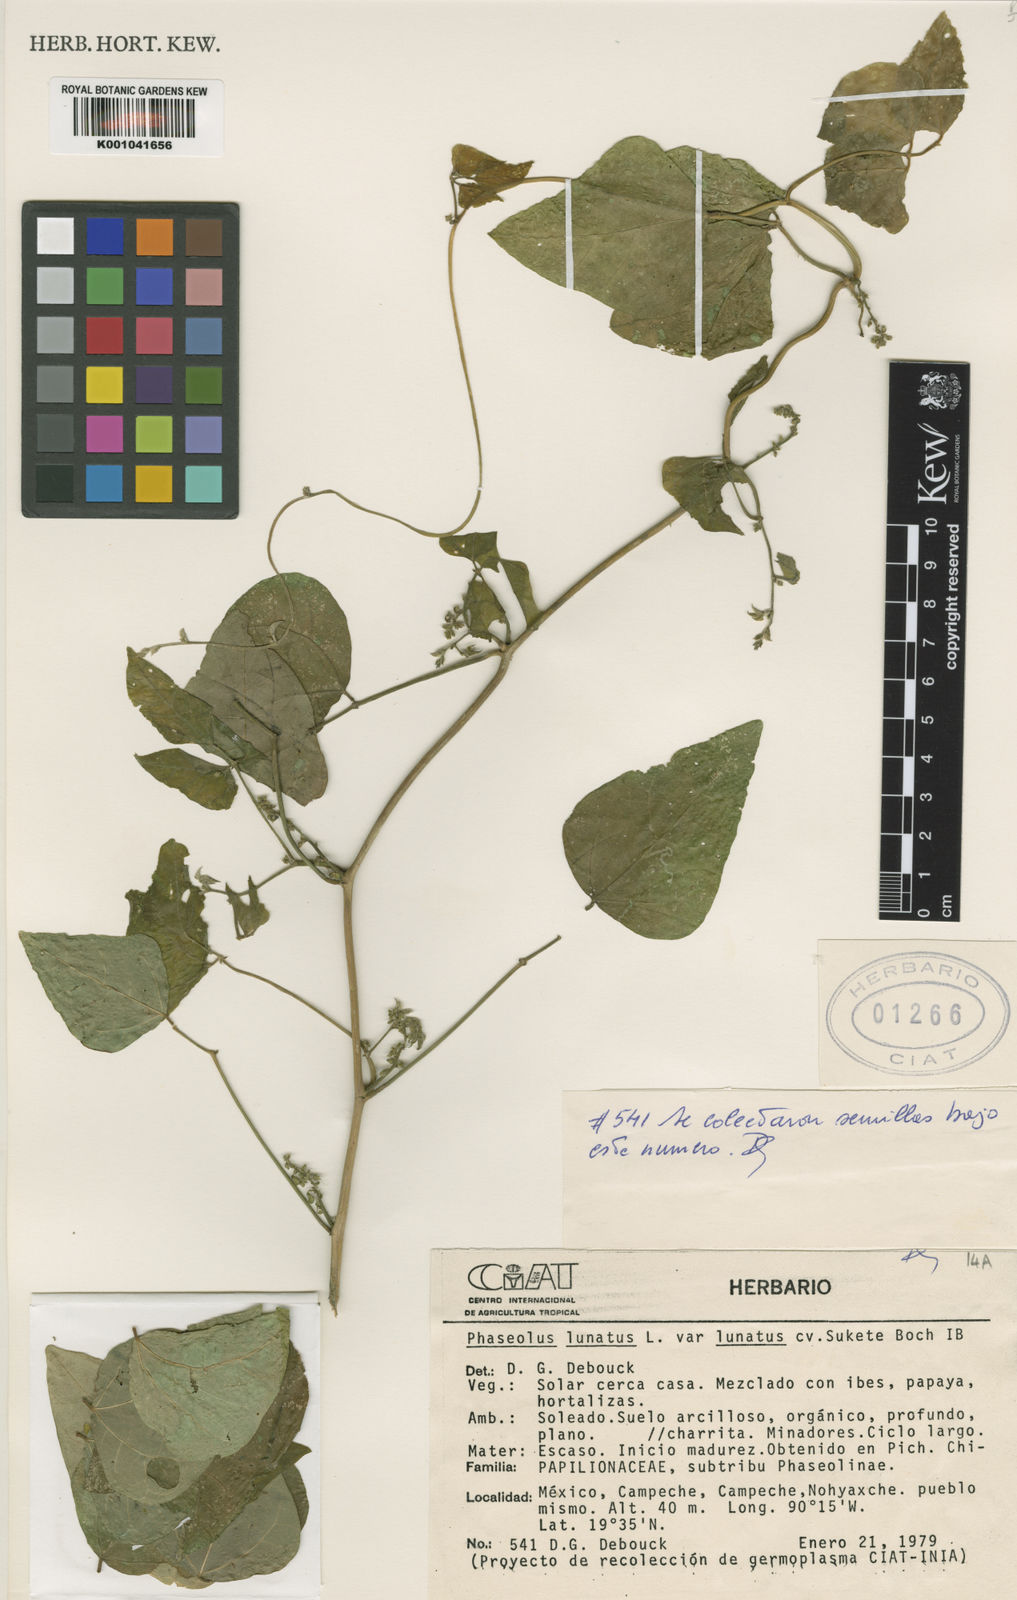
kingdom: Plantae
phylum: Tracheophyta
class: Magnoliopsida
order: Fabales
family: Fabaceae
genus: Phaseolus
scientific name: Phaseolus
